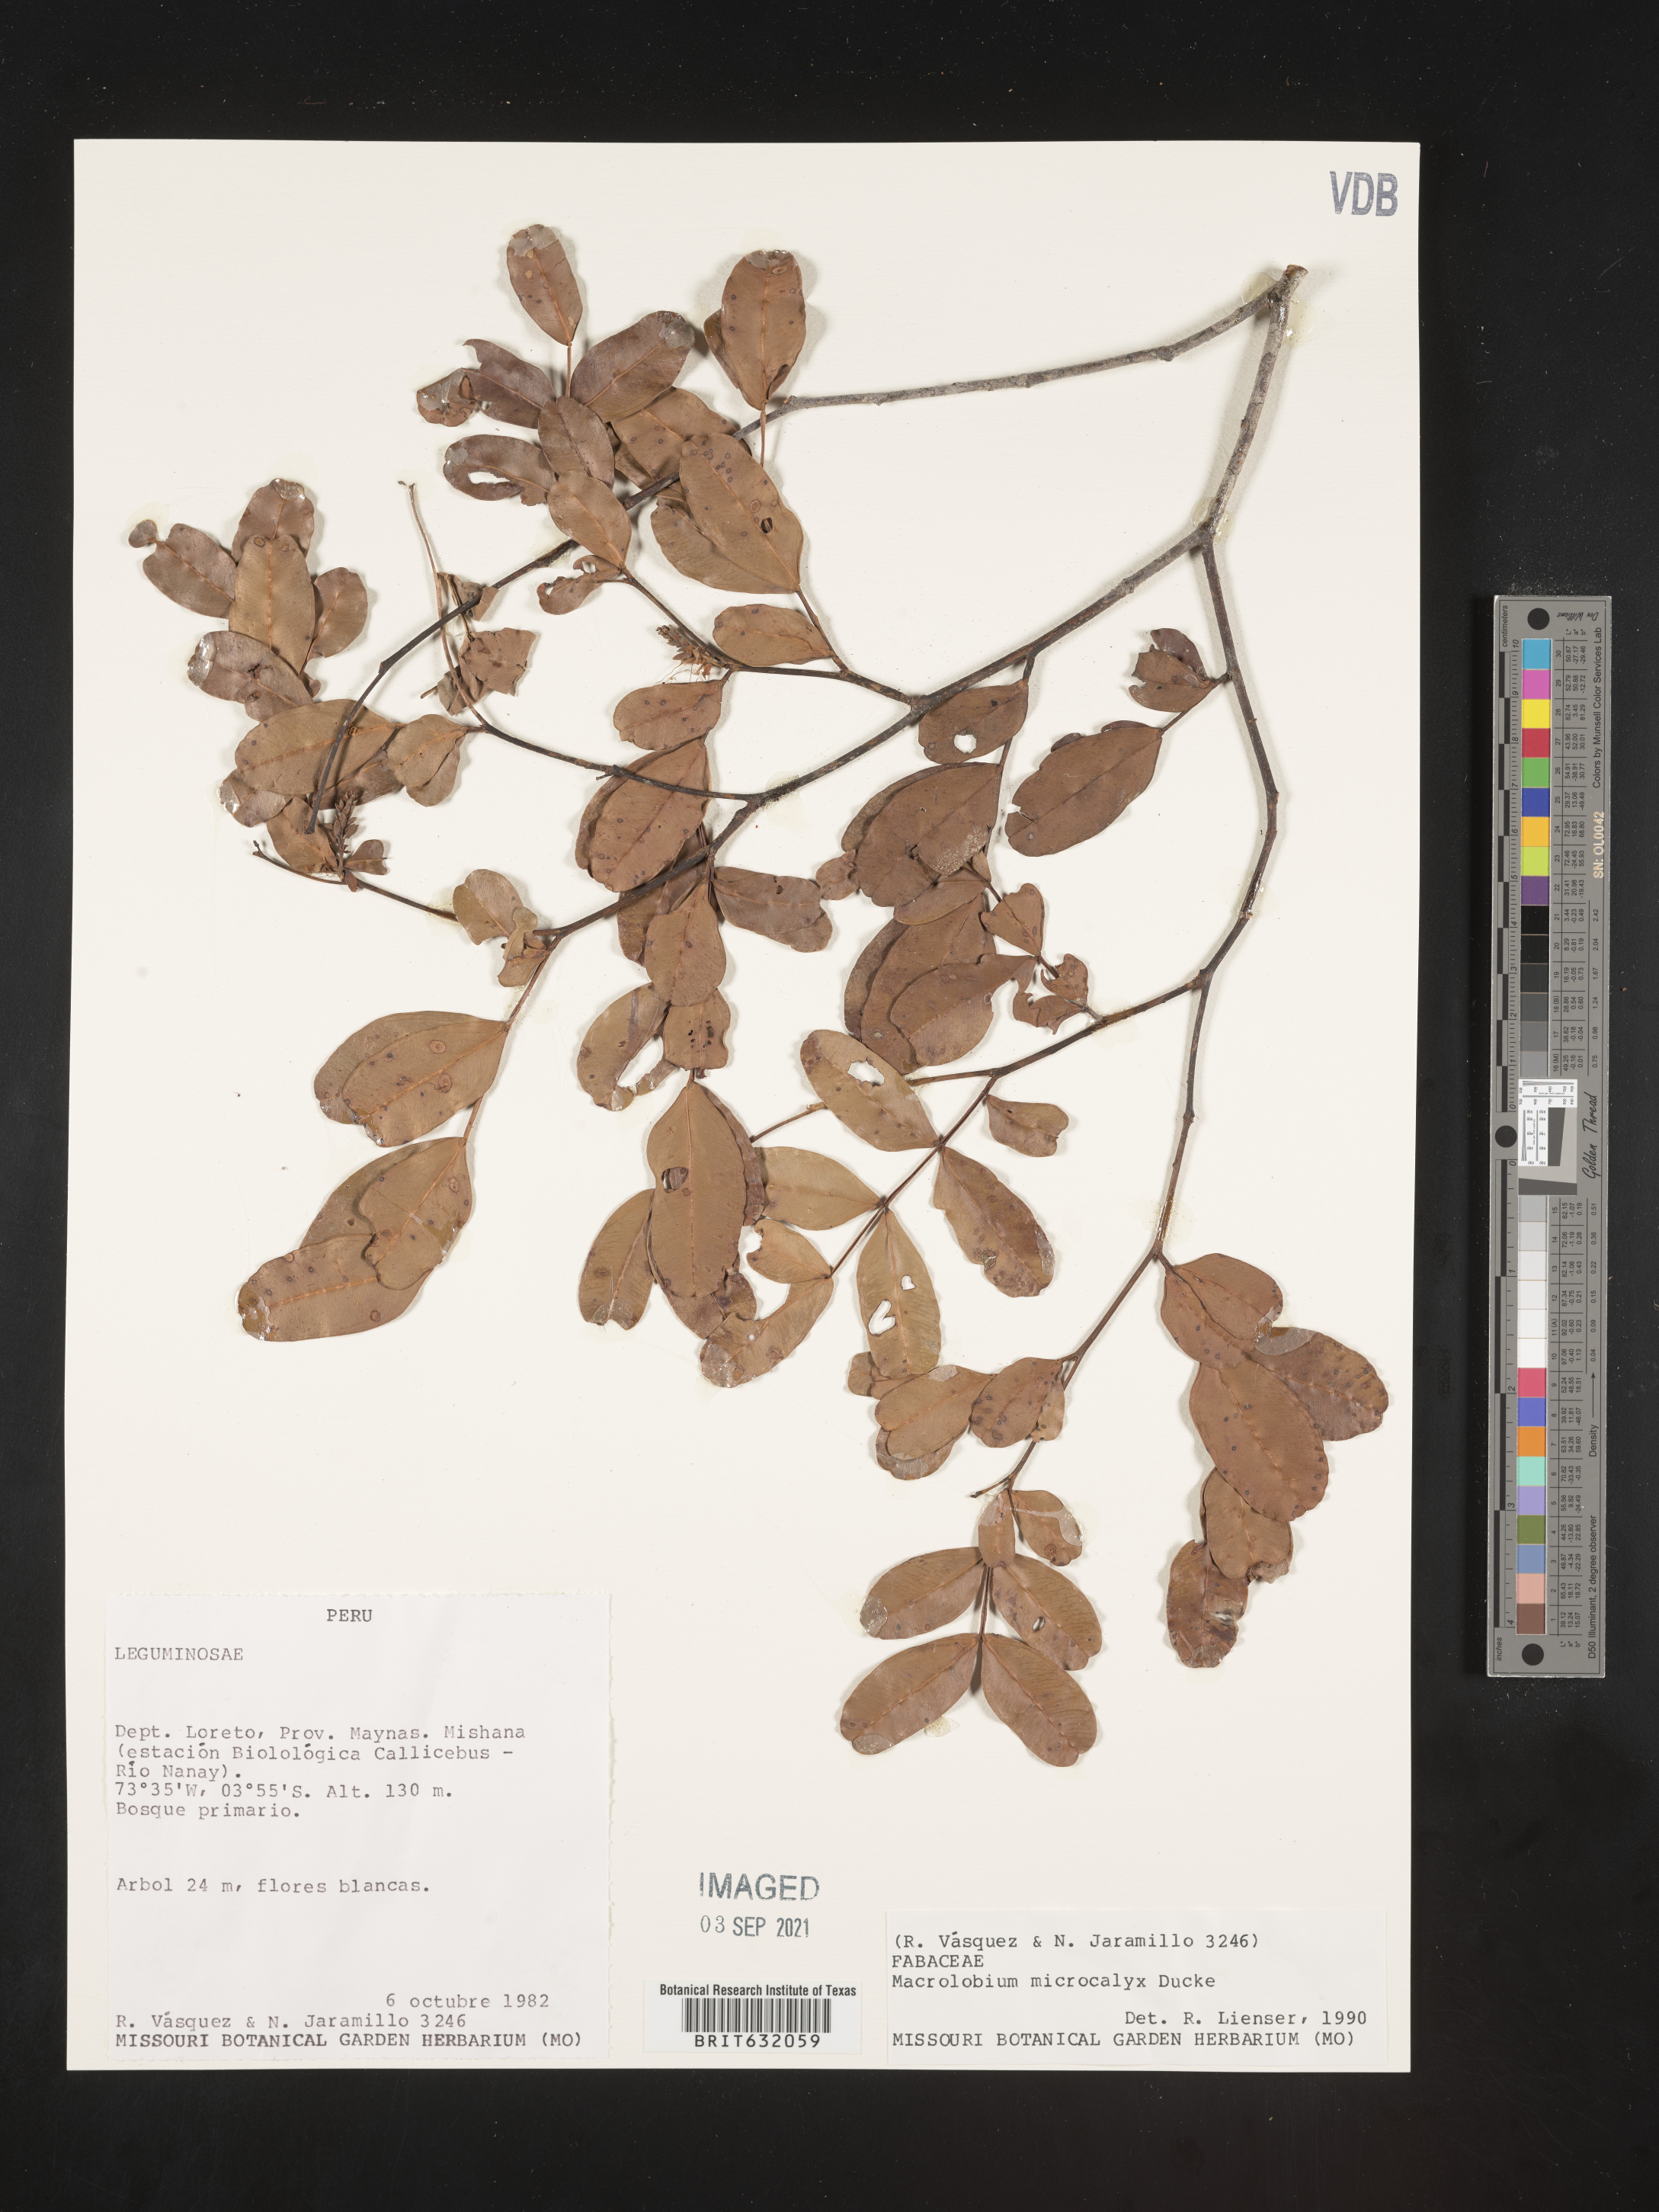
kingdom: Plantae
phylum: Tracheophyta
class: Magnoliopsida
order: Fabales
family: Fabaceae
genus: Macrolobium
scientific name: Macrolobium
